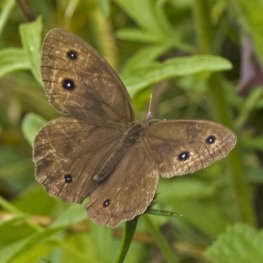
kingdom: Animalia
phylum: Arthropoda
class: Insecta
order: Lepidoptera
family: Nymphalidae
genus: Cercyonis
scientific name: Cercyonis pegala
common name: Common Wood-Nymph
